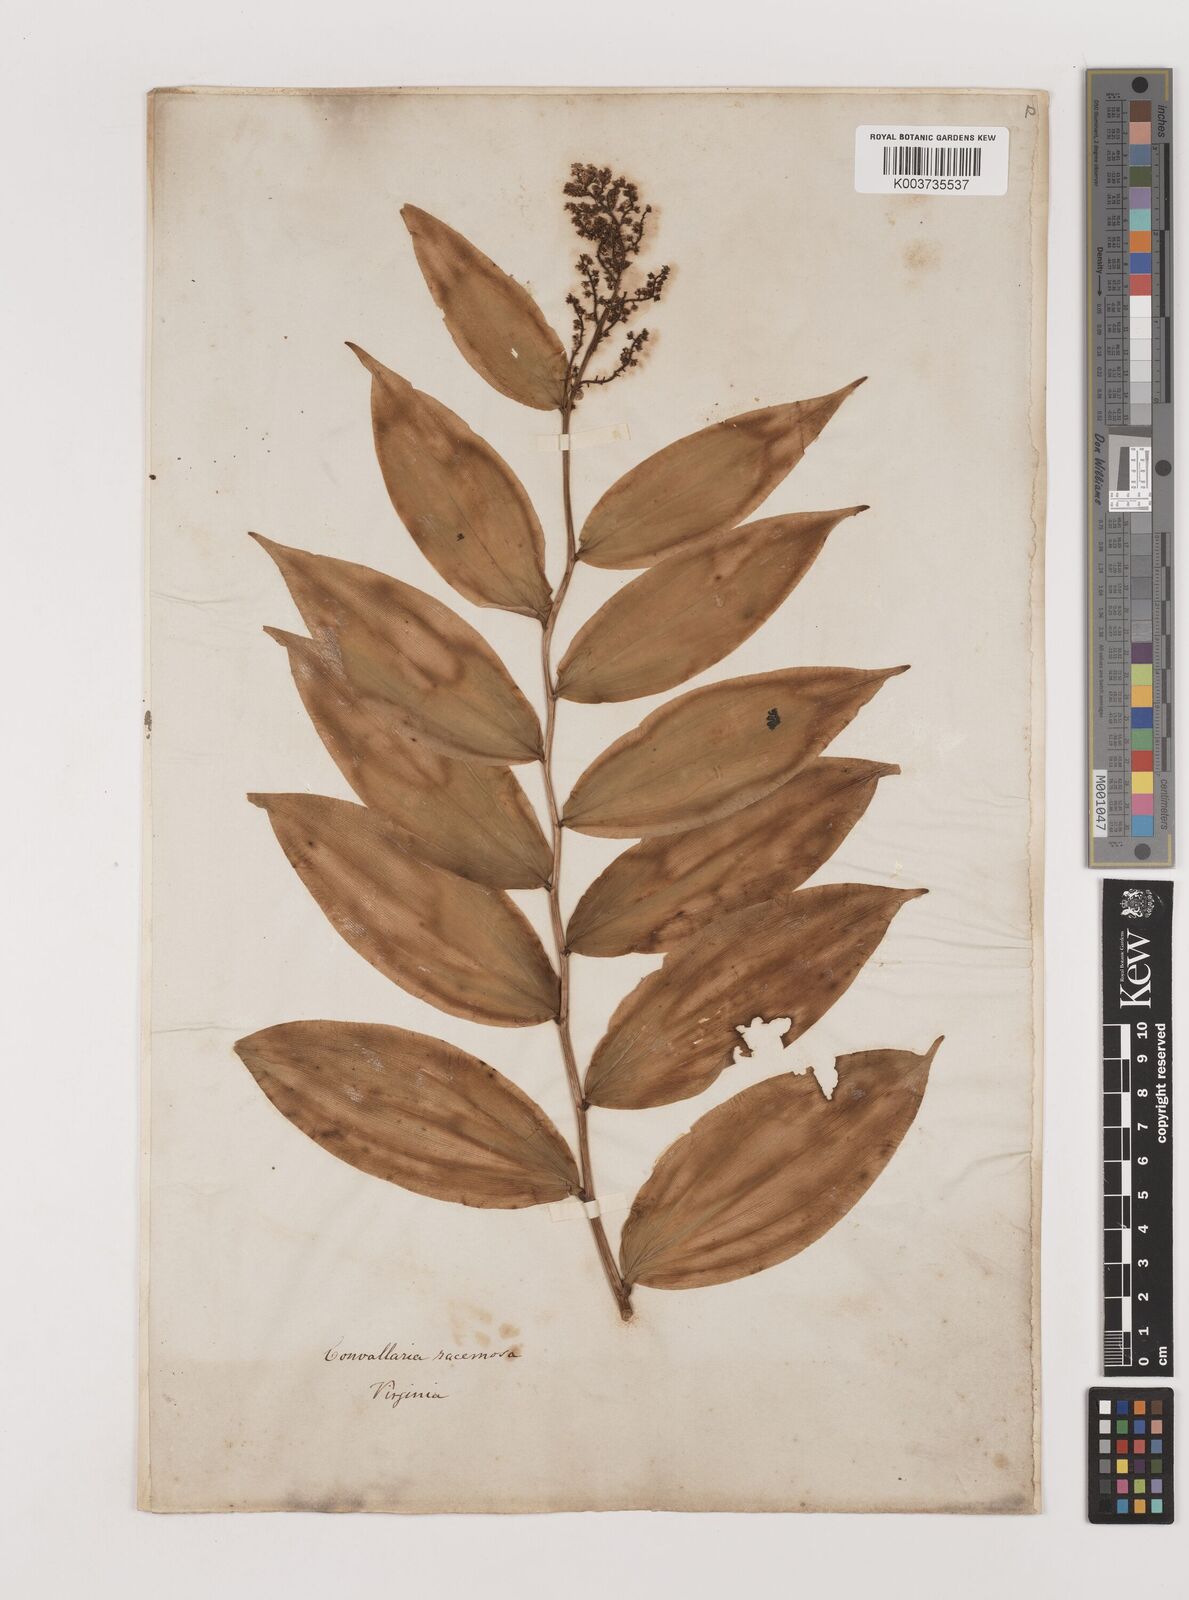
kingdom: Plantae
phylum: Tracheophyta
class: Liliopsida
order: Asparagales
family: Asparagaceae
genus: Convallaria
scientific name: Convallaria
